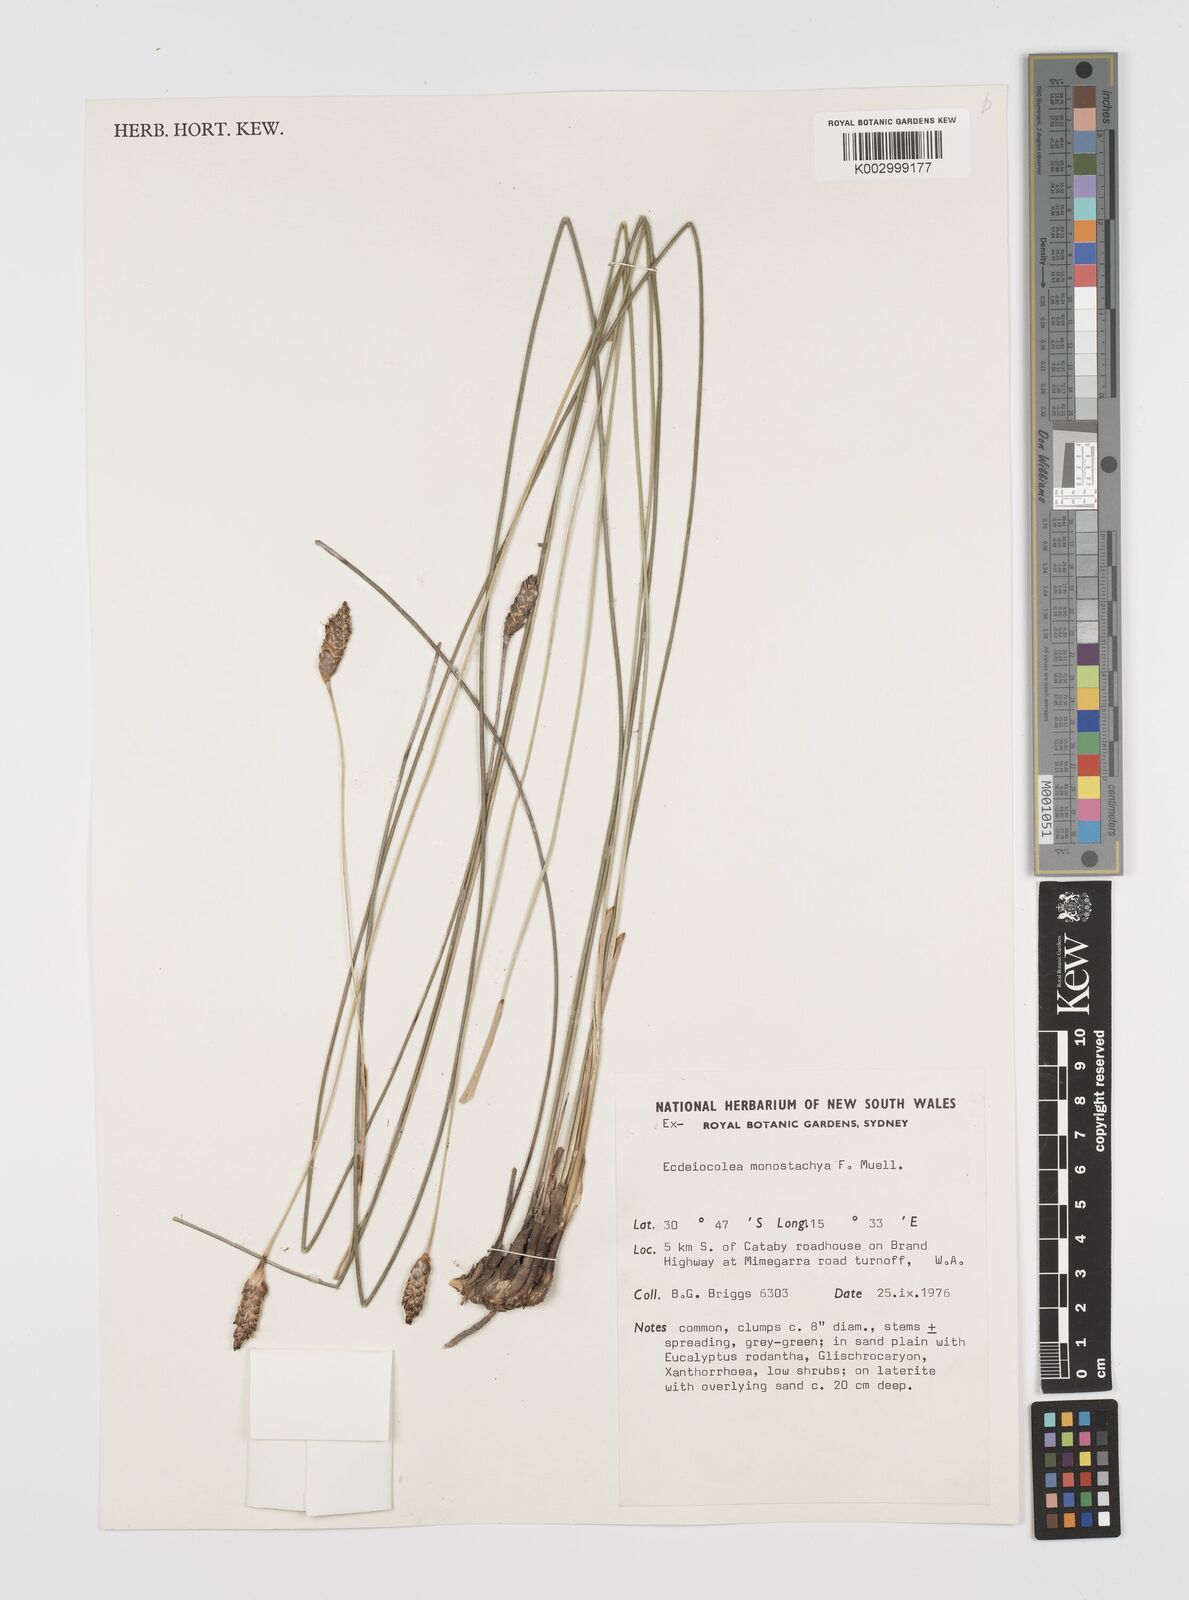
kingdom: Plantae
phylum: Tracheophyta
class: Liliopsida
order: Poales
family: Ecdeiocoleaceae
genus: Ecdeiocolea
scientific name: Ecdeiocolea monostachya
